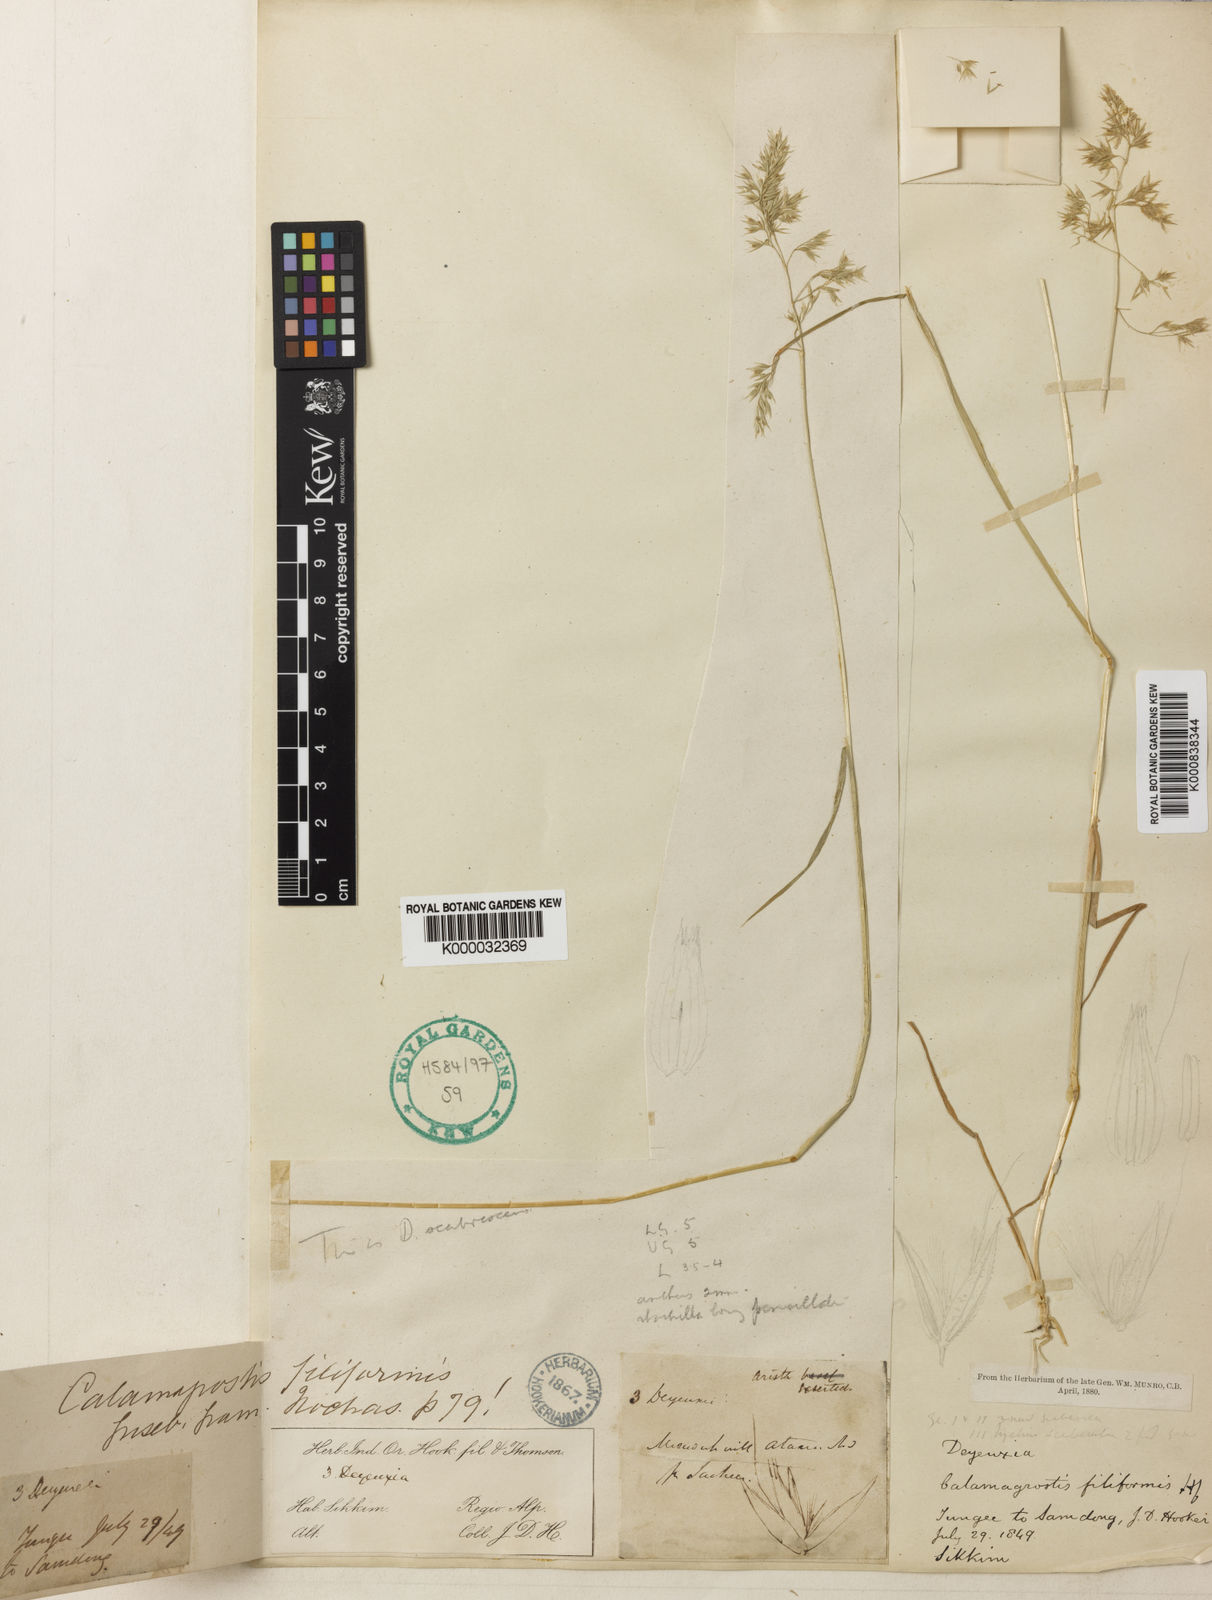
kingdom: Plantae
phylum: Tracheophyta
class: Liliopsida
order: Poales
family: Poaceae
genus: Calamagrostis
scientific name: Calamagrostis scabrescens
